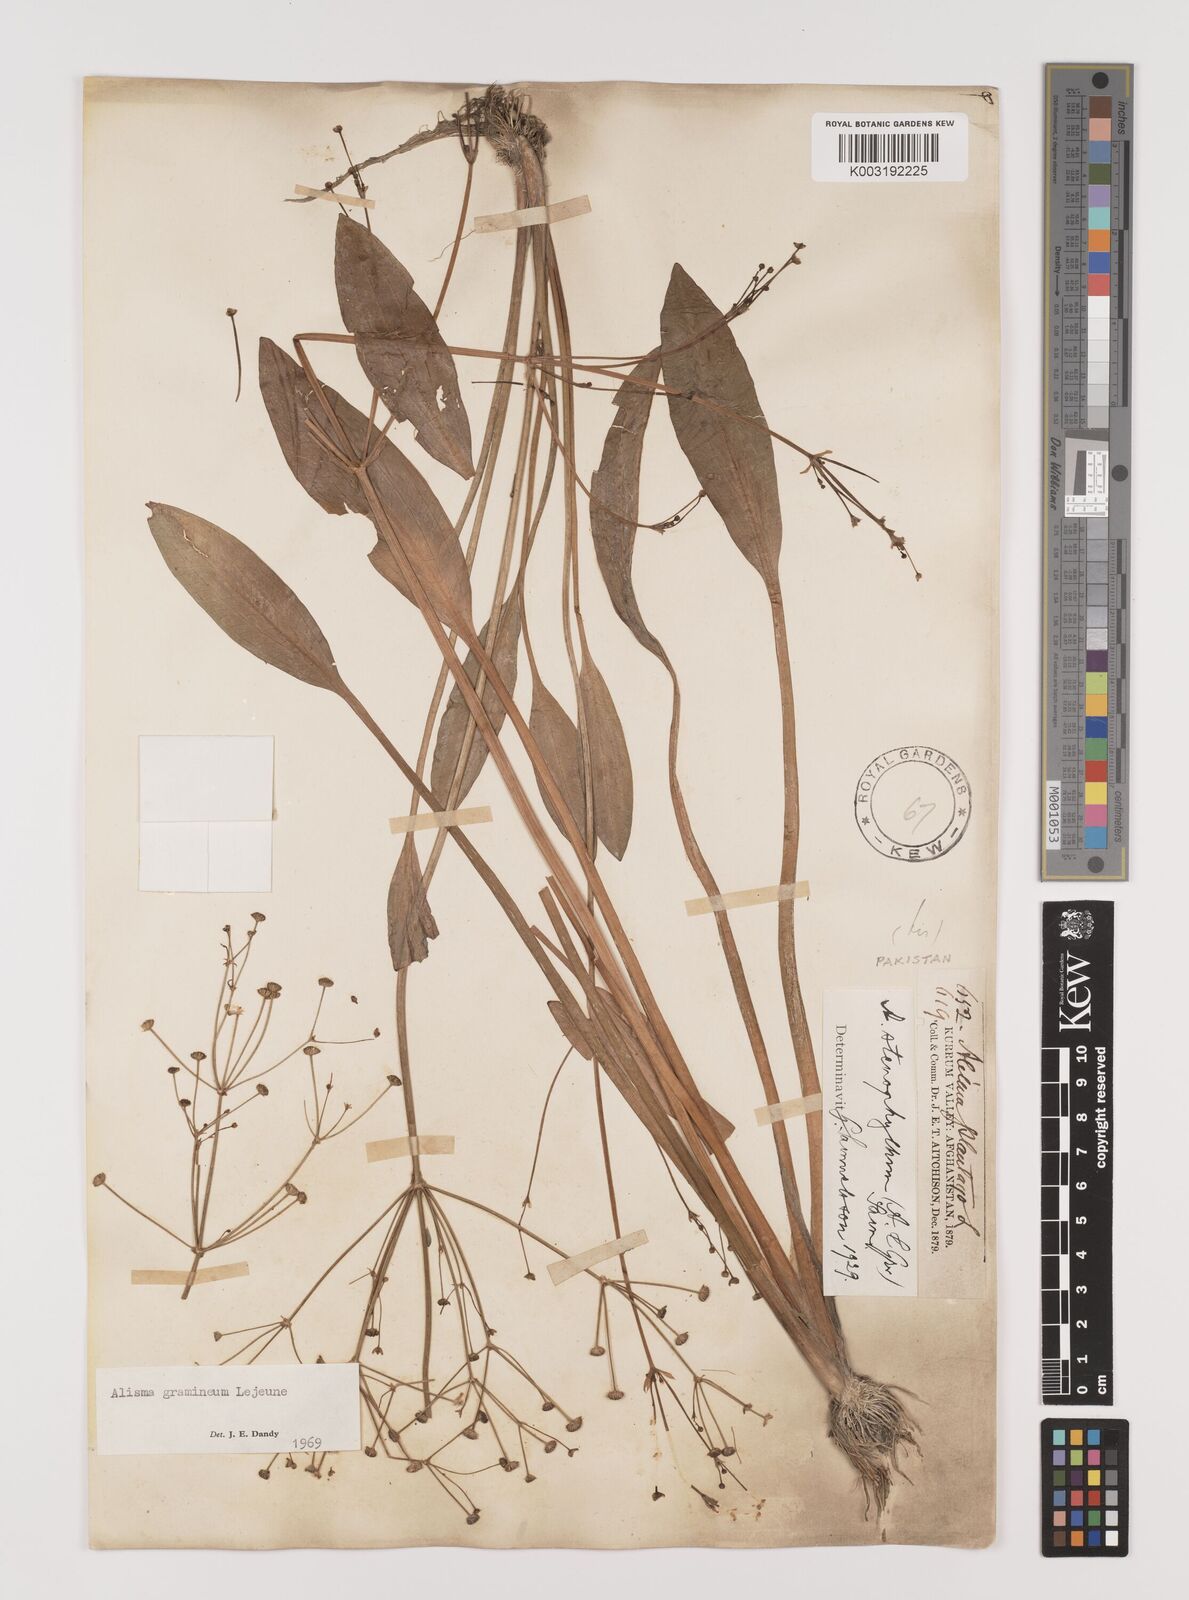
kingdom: Plantae
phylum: Tracheophyta
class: Liliopsida
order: Alismatales
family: Alismataceae
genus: Alisma
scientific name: Alisma gramineum
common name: Ribbon-leaved water-plantain
